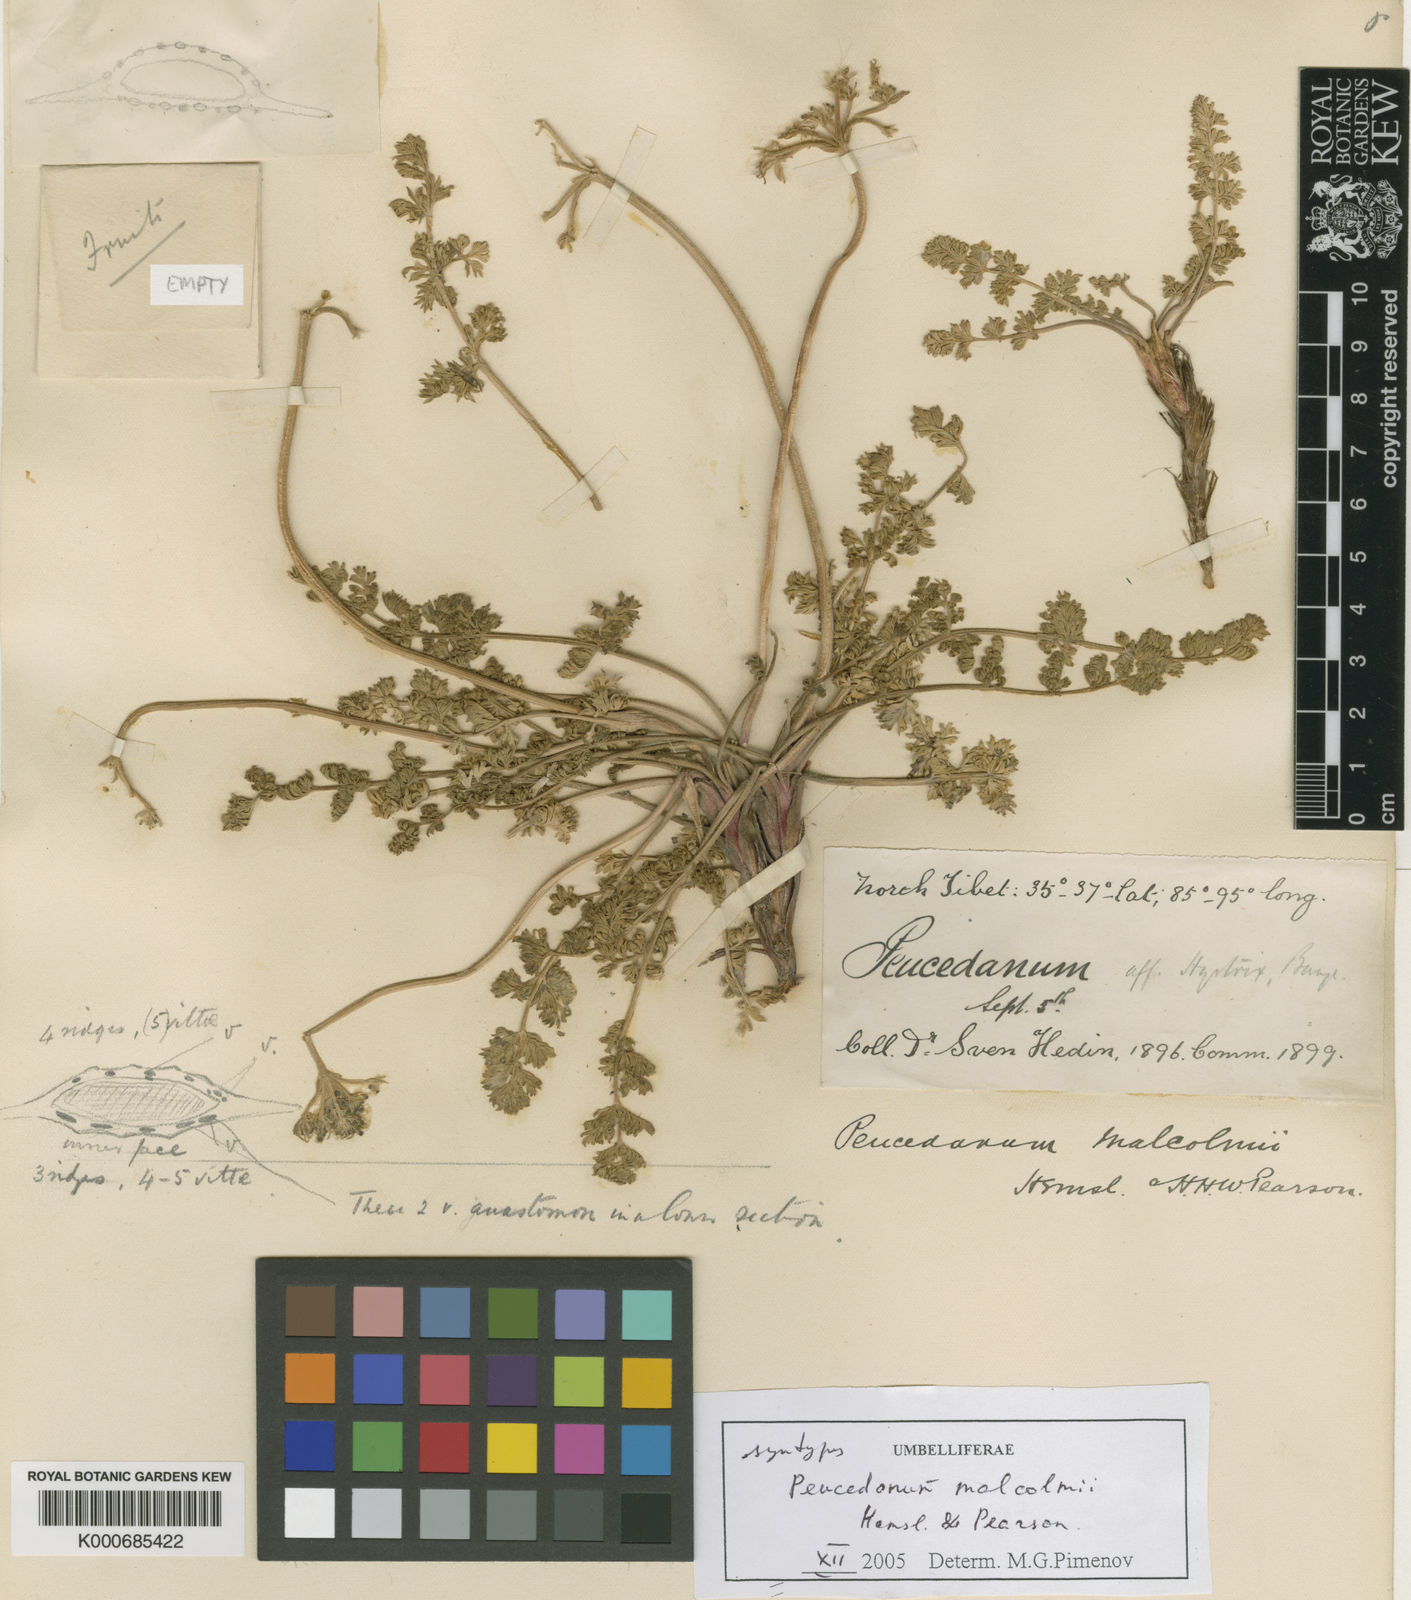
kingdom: Plantae
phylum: Tracheophyta
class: Magnoliopsida
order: Apiales
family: Apiaceae
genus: Semenovia
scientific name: Semenovia malcolmii
